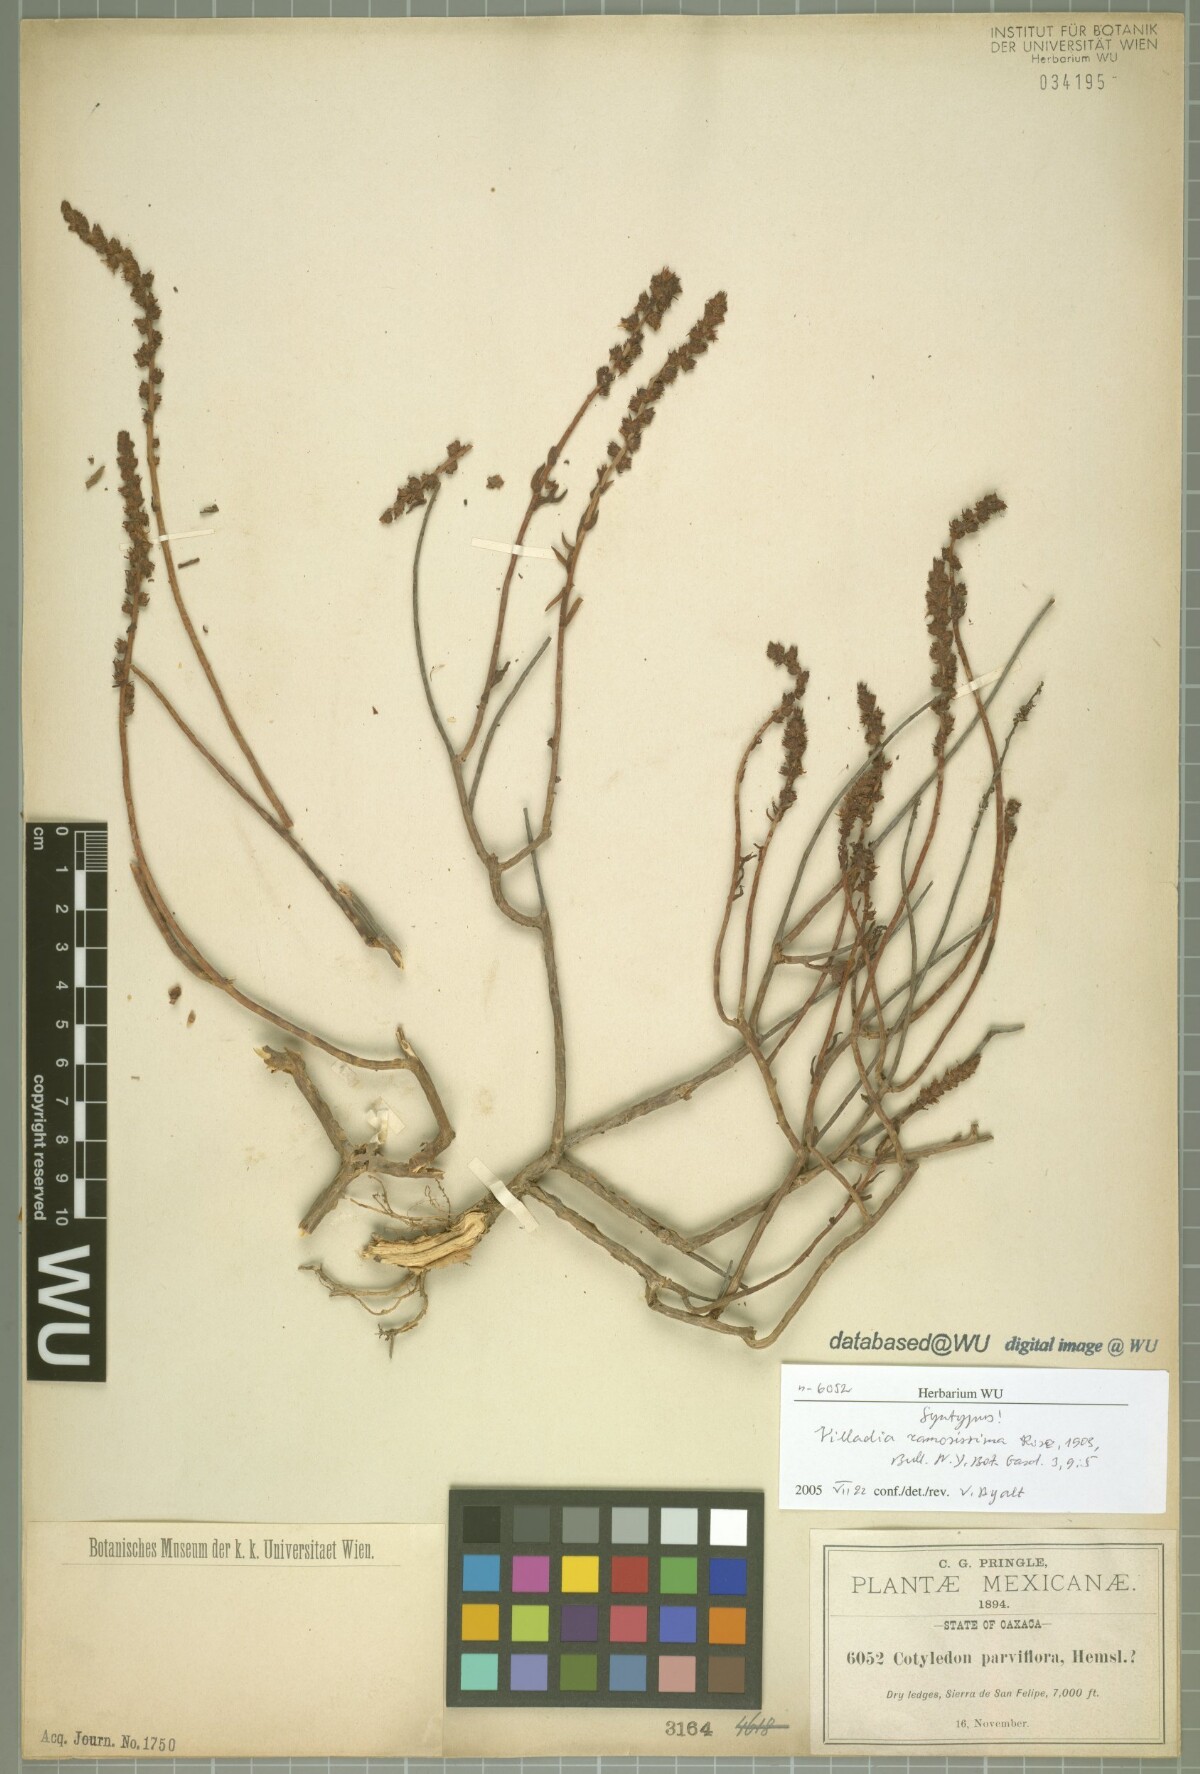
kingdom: Plantae
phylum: Tracheophyta
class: Magnoliopsida
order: Saxifragales
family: Crassulaceae
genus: Villadia
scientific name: Villadia albiflora
